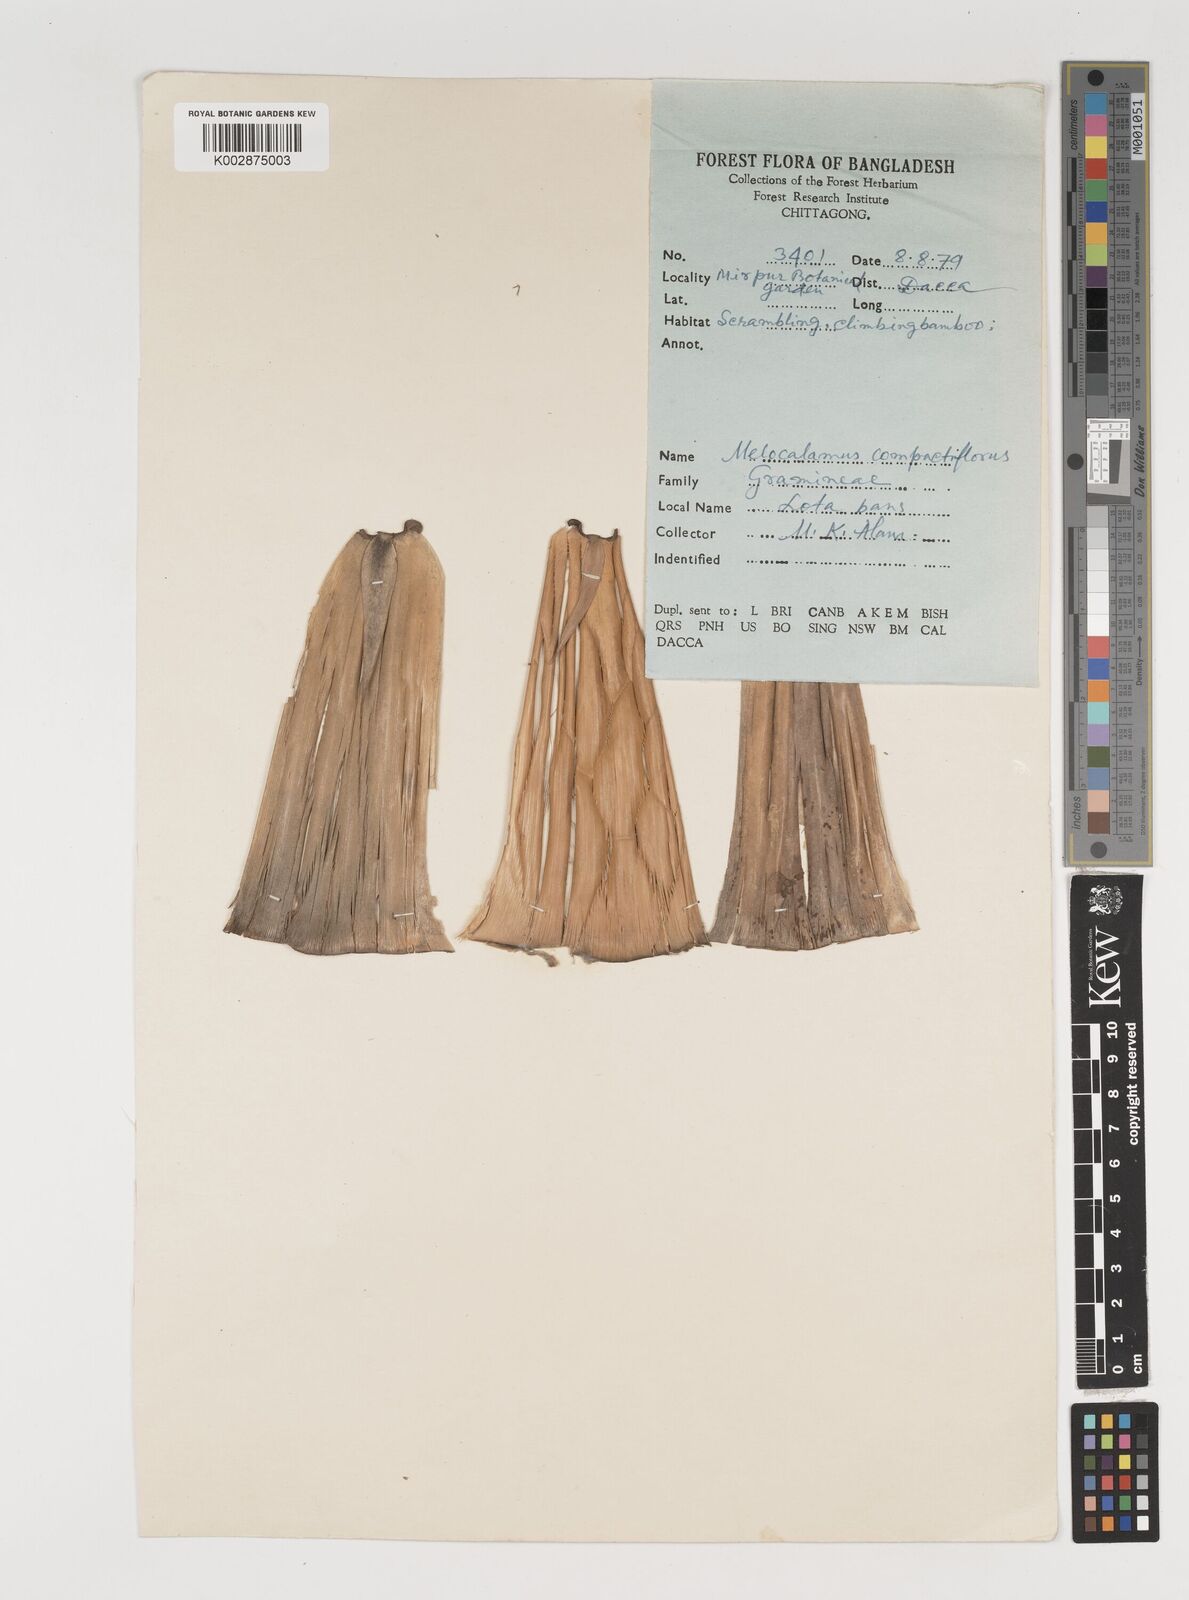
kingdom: Plantae
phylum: Tracheophyta
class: Liliopsida
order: Poales
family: Poaceae
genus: Melocalamus
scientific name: Melocalamus compactiflorus
